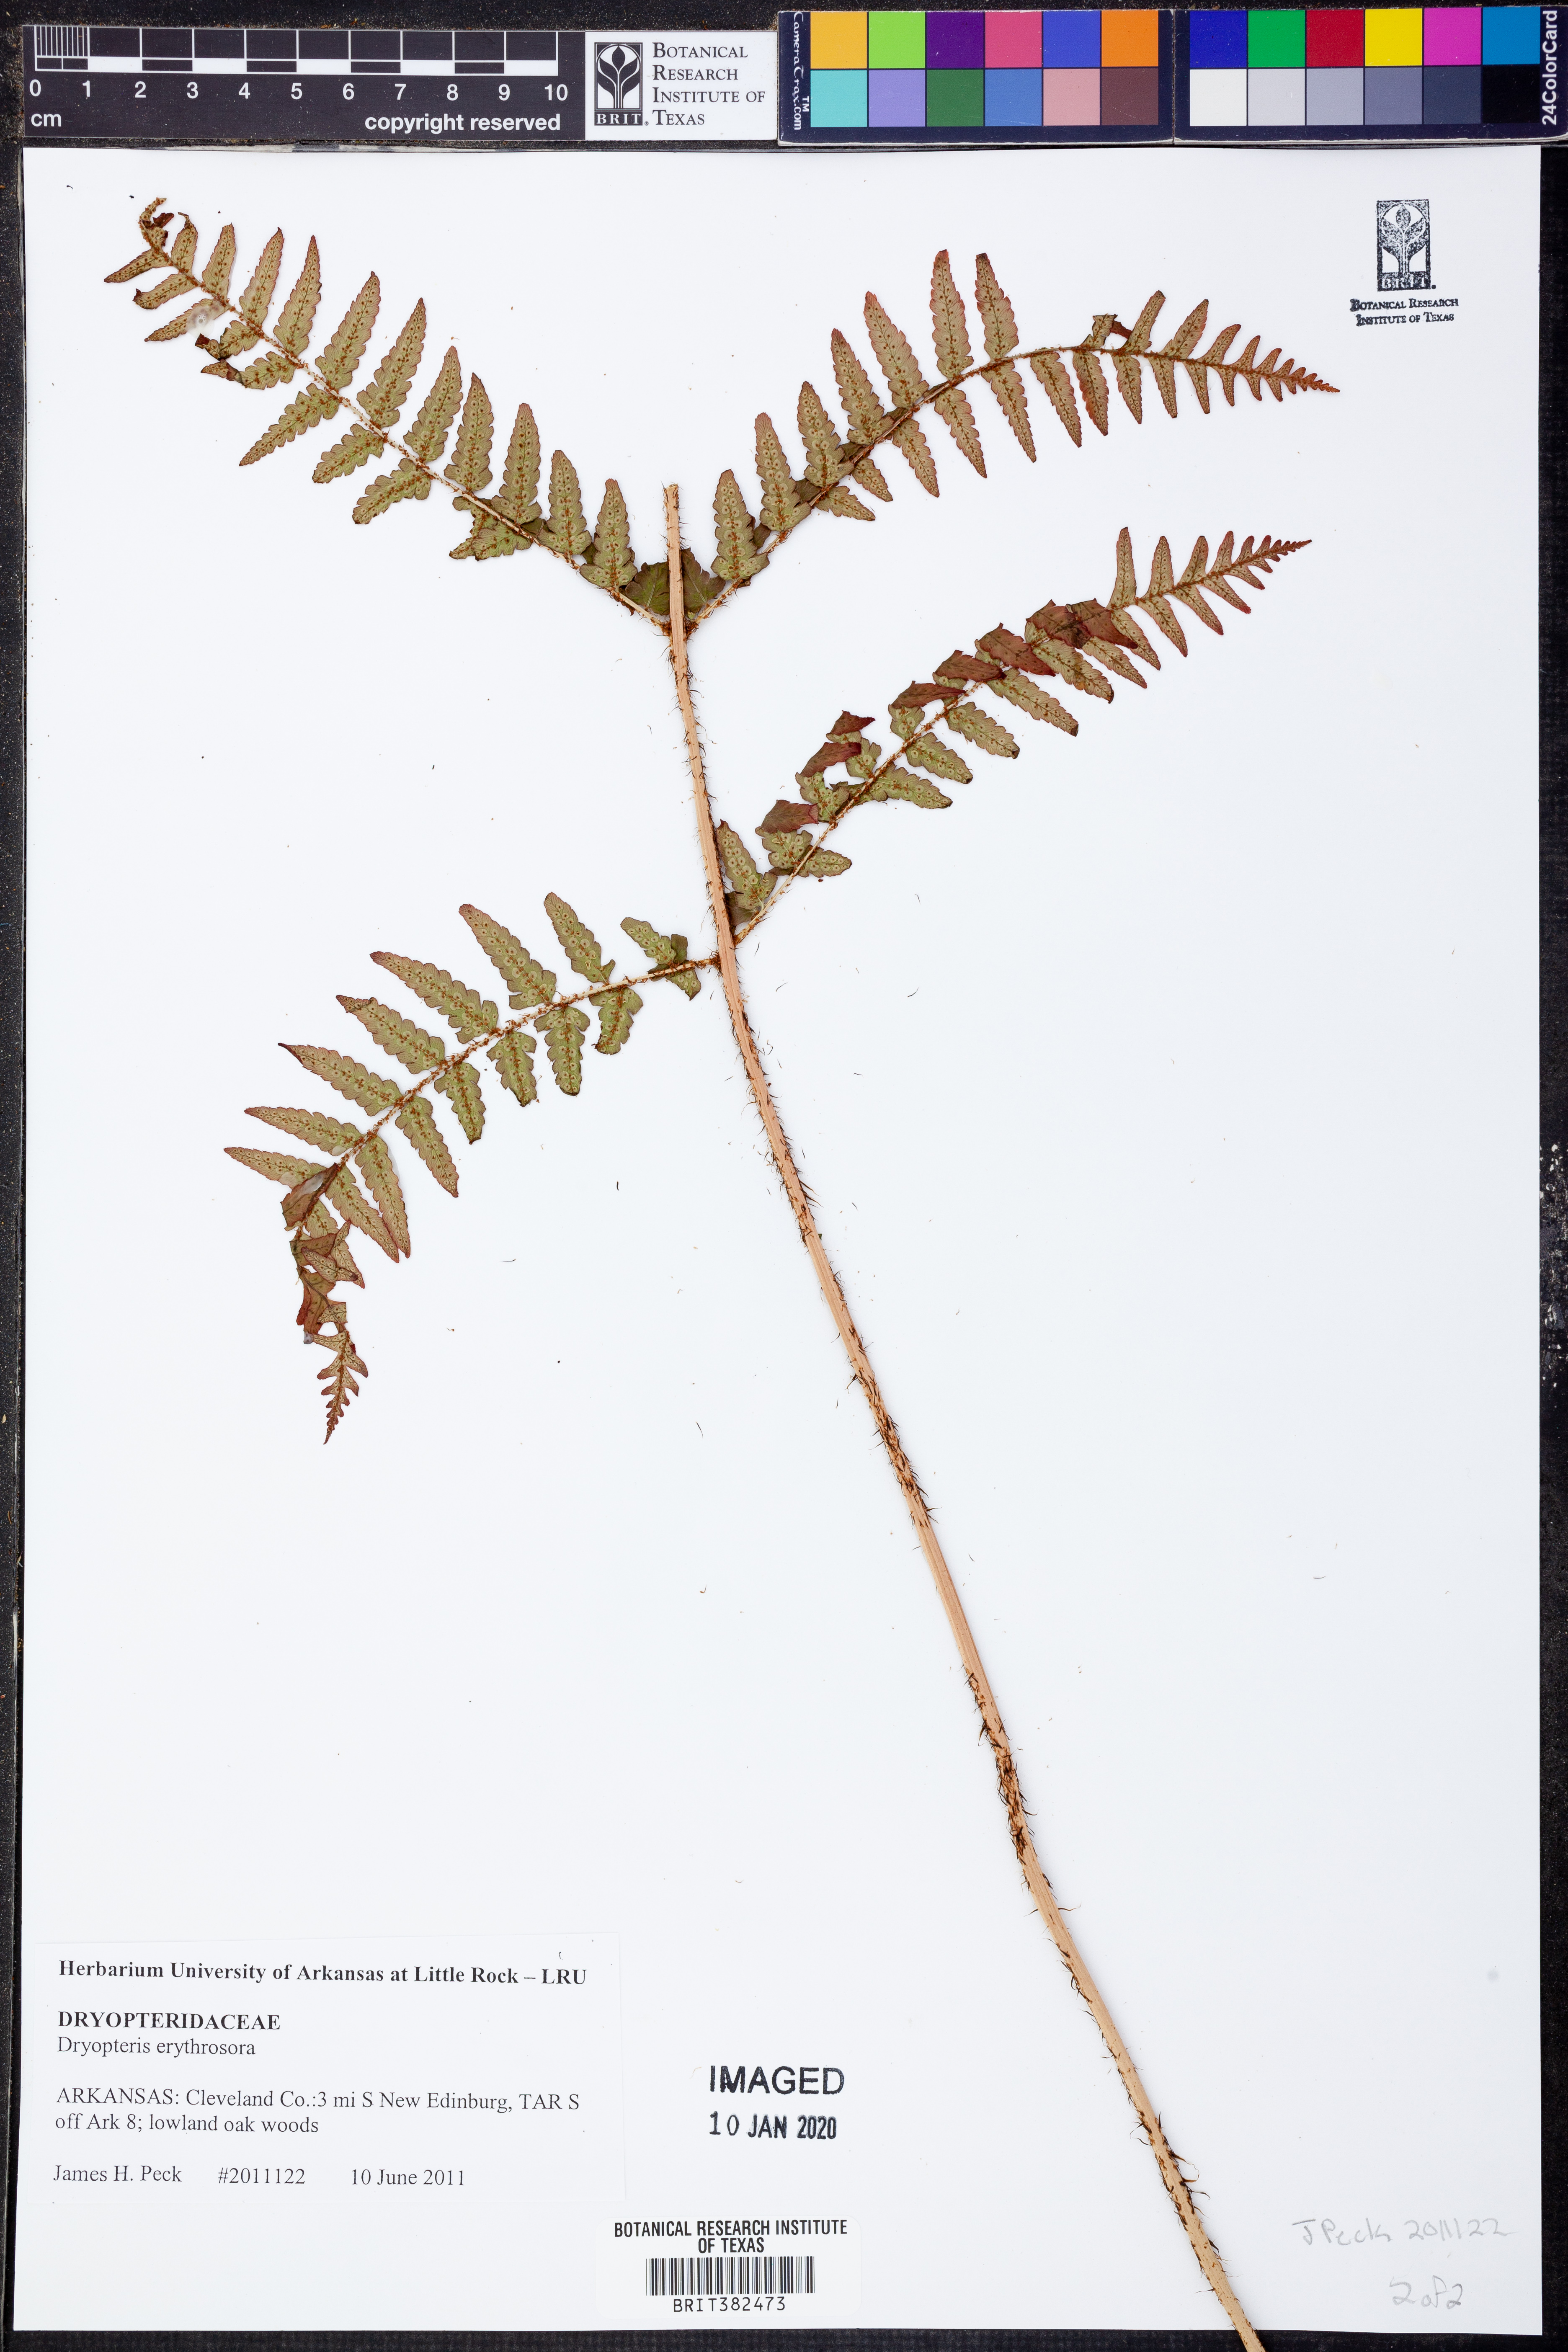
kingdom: Plantae
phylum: Tracheophyta
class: Polypodiopsida
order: Polypodiales
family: Dryopteridaceae
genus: Dryopteris
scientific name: Dryopteris erythrosora
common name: Autumn fern
